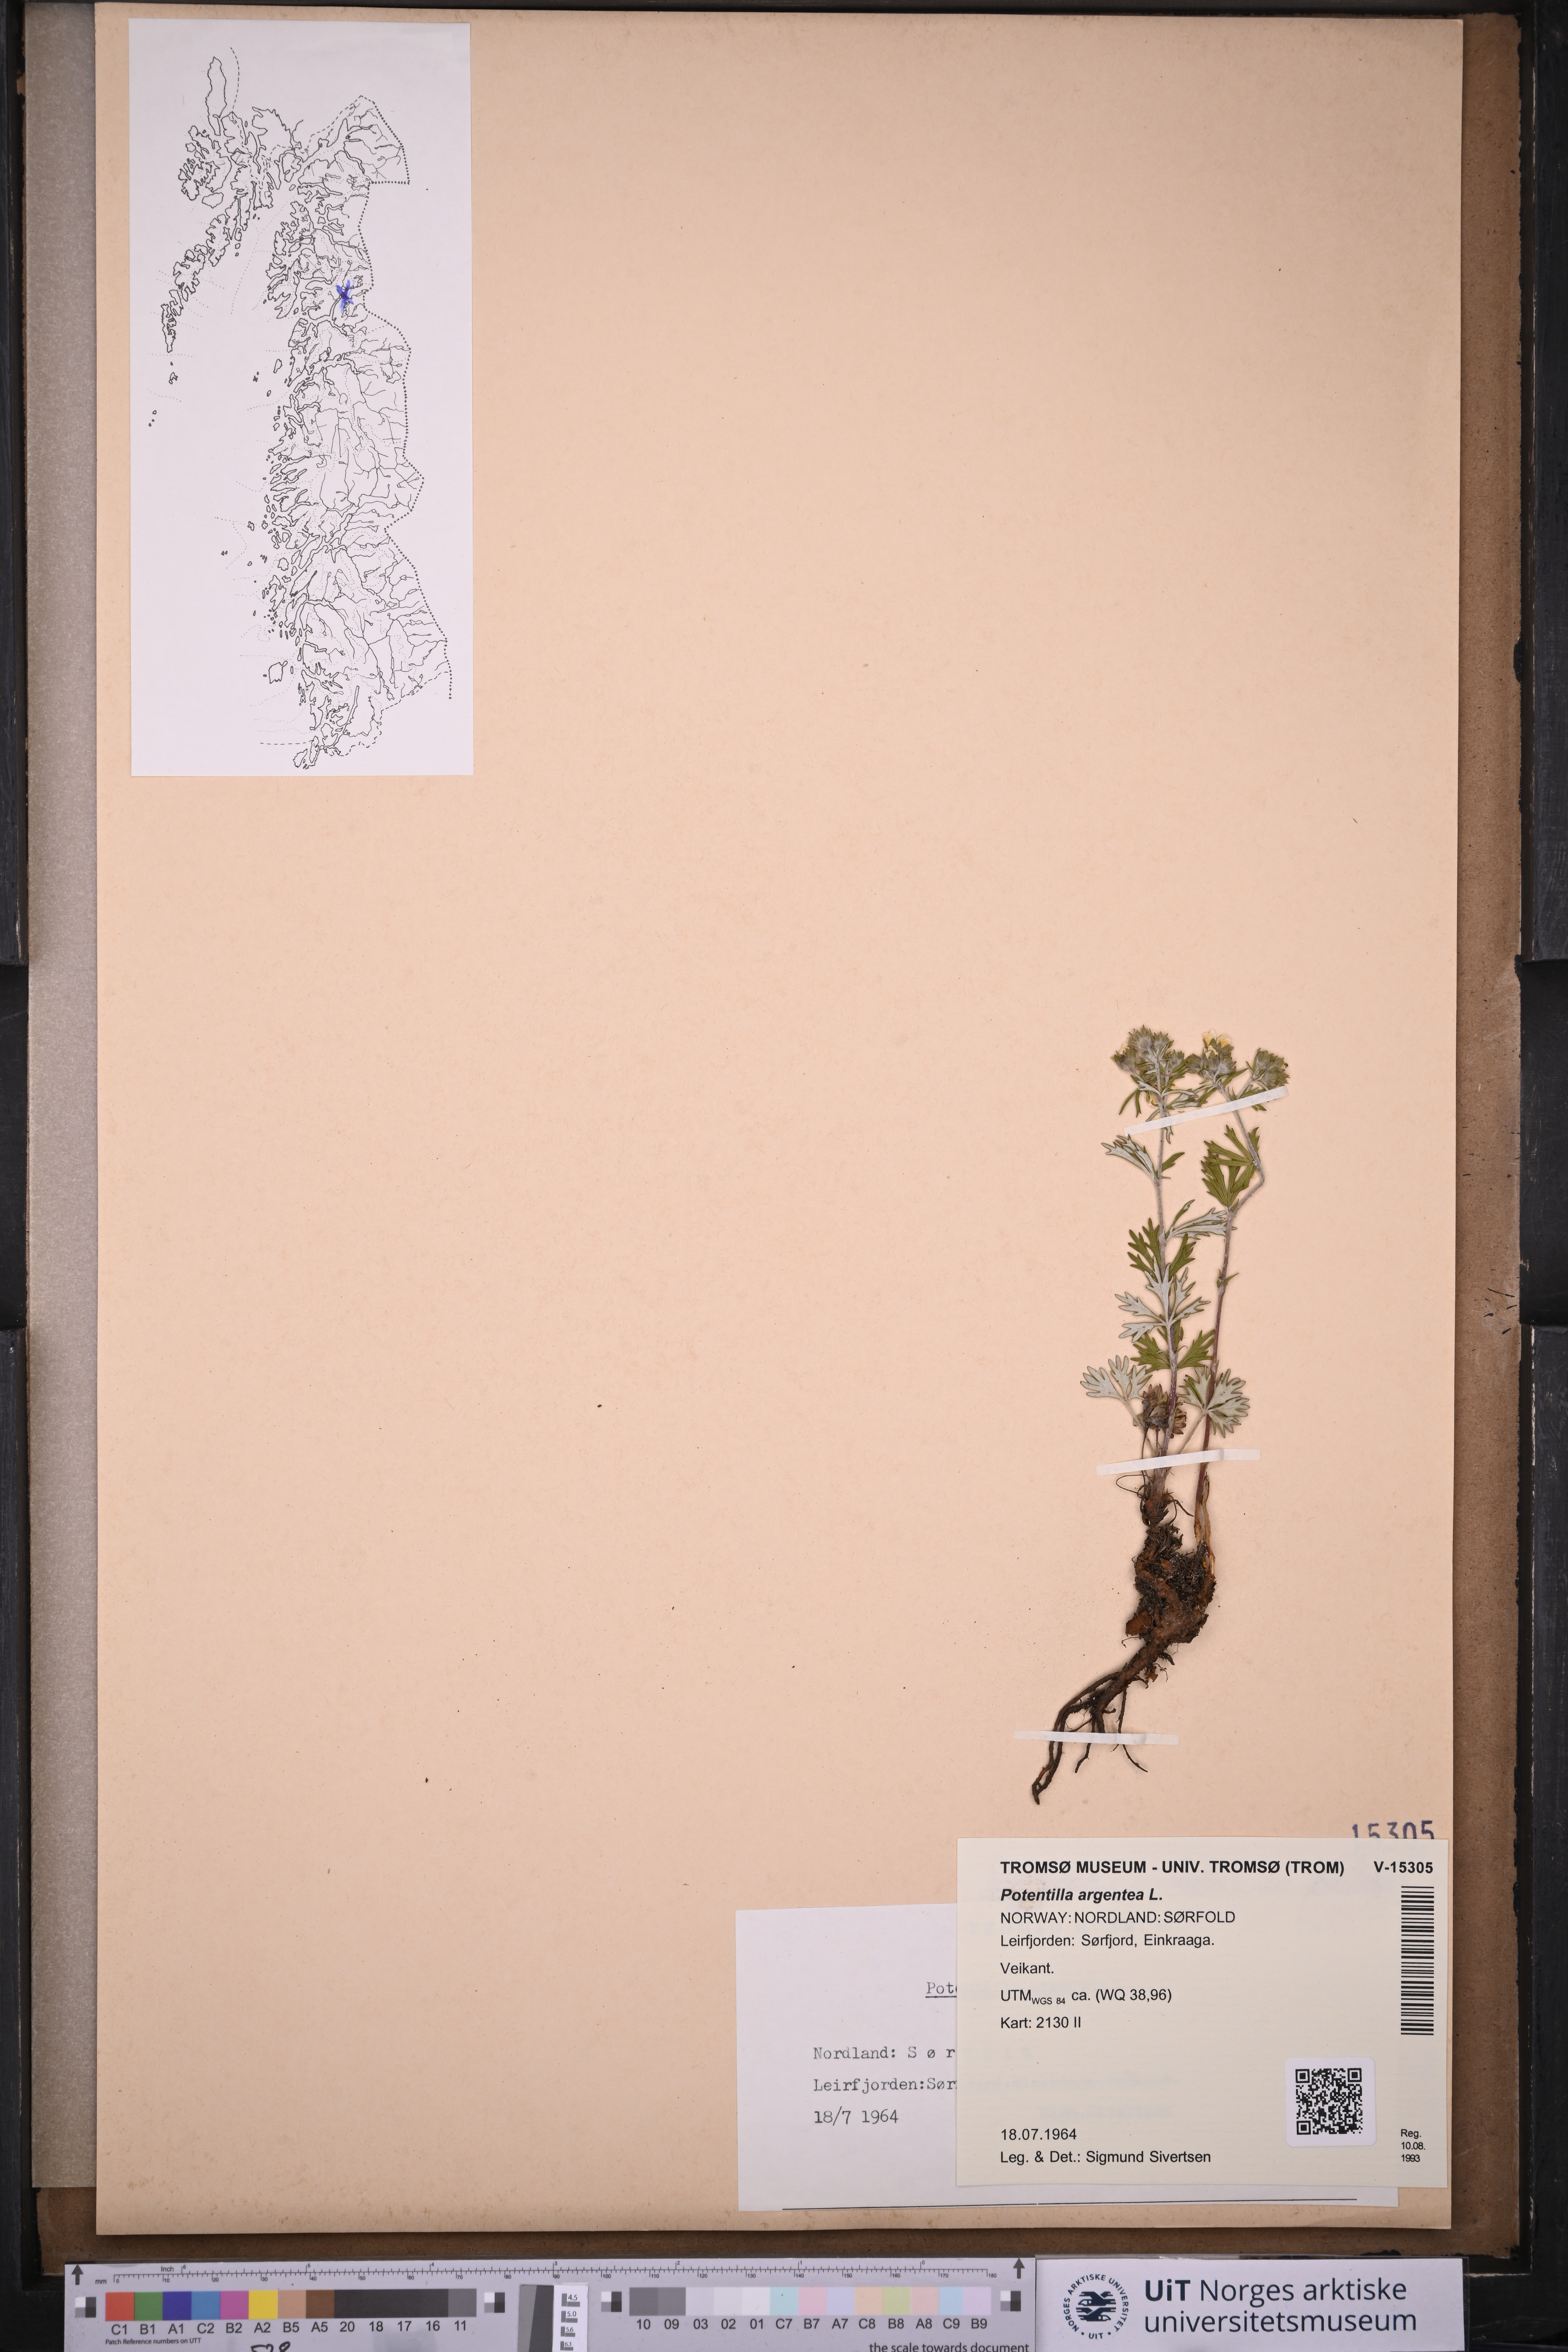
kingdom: Plantae
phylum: Tracheophyta
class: Magnoliopsida
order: Rosales
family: Rosaceae
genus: Potentilla
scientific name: Potentilla argentea
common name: Hoary cinquefoil
